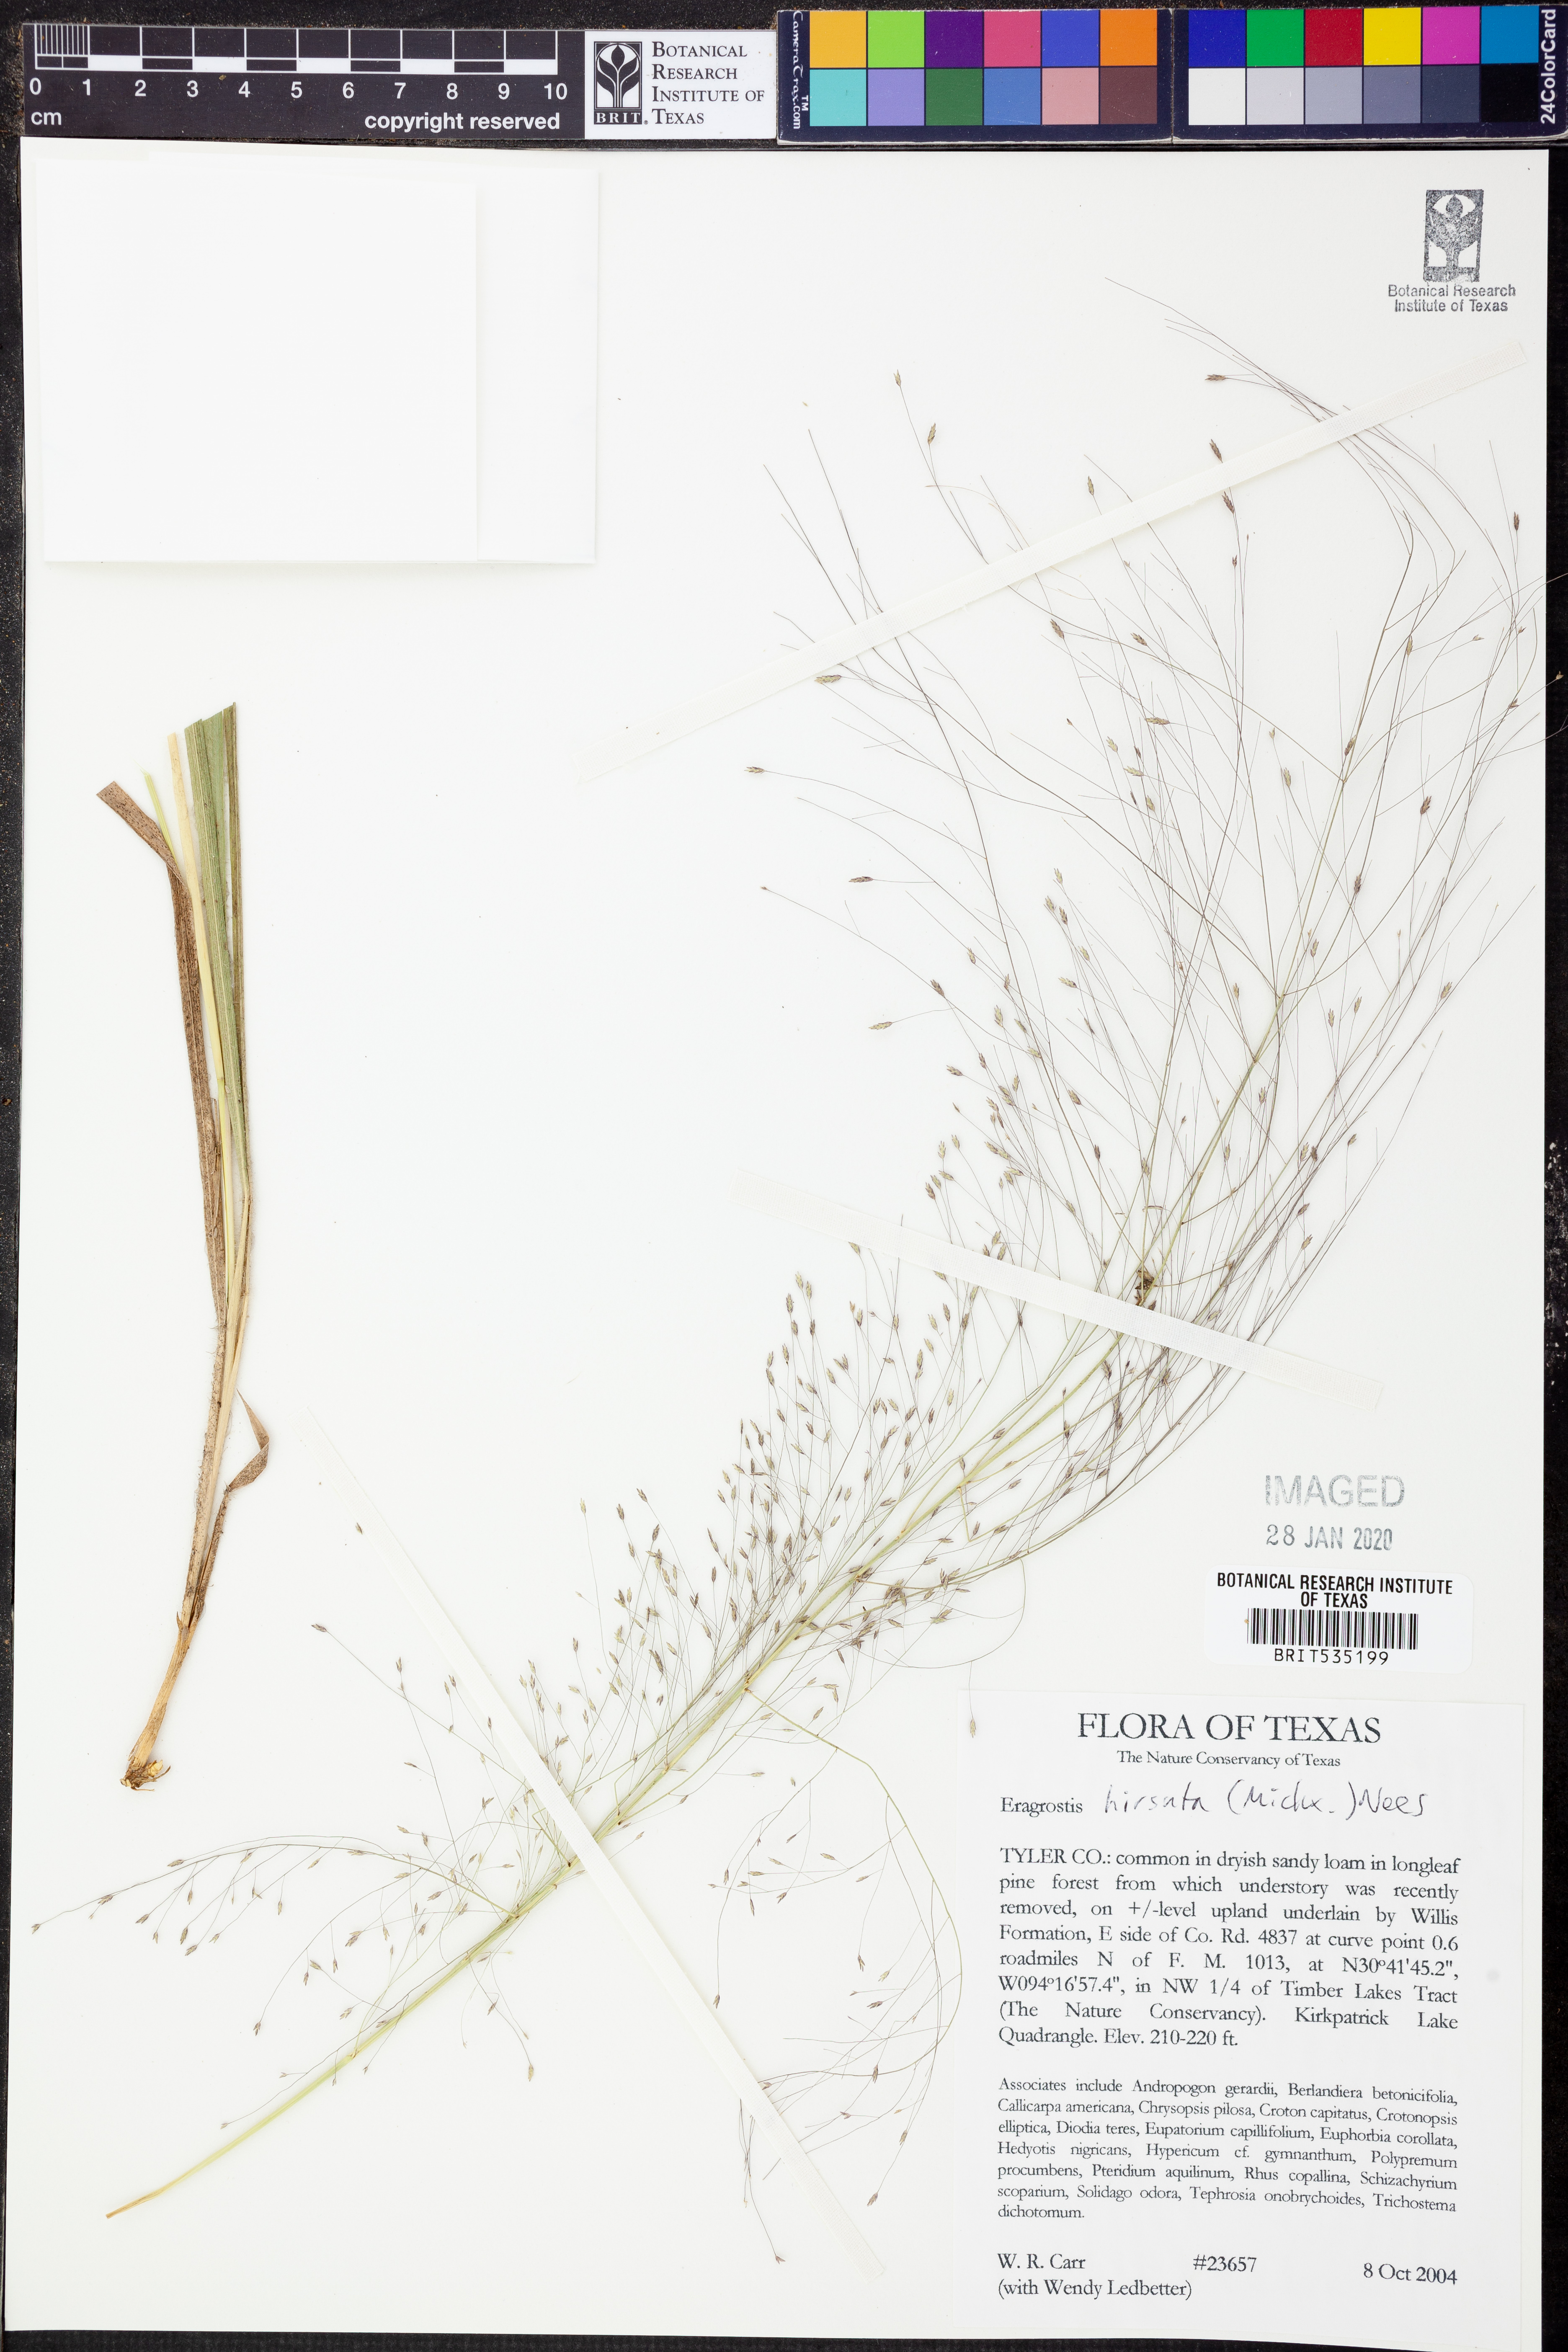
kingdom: Plantae
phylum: Tracheophyta
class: Liliopsida
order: Poales
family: Poaceae
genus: Eragrostis
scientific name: Eragrostis hirsuta
